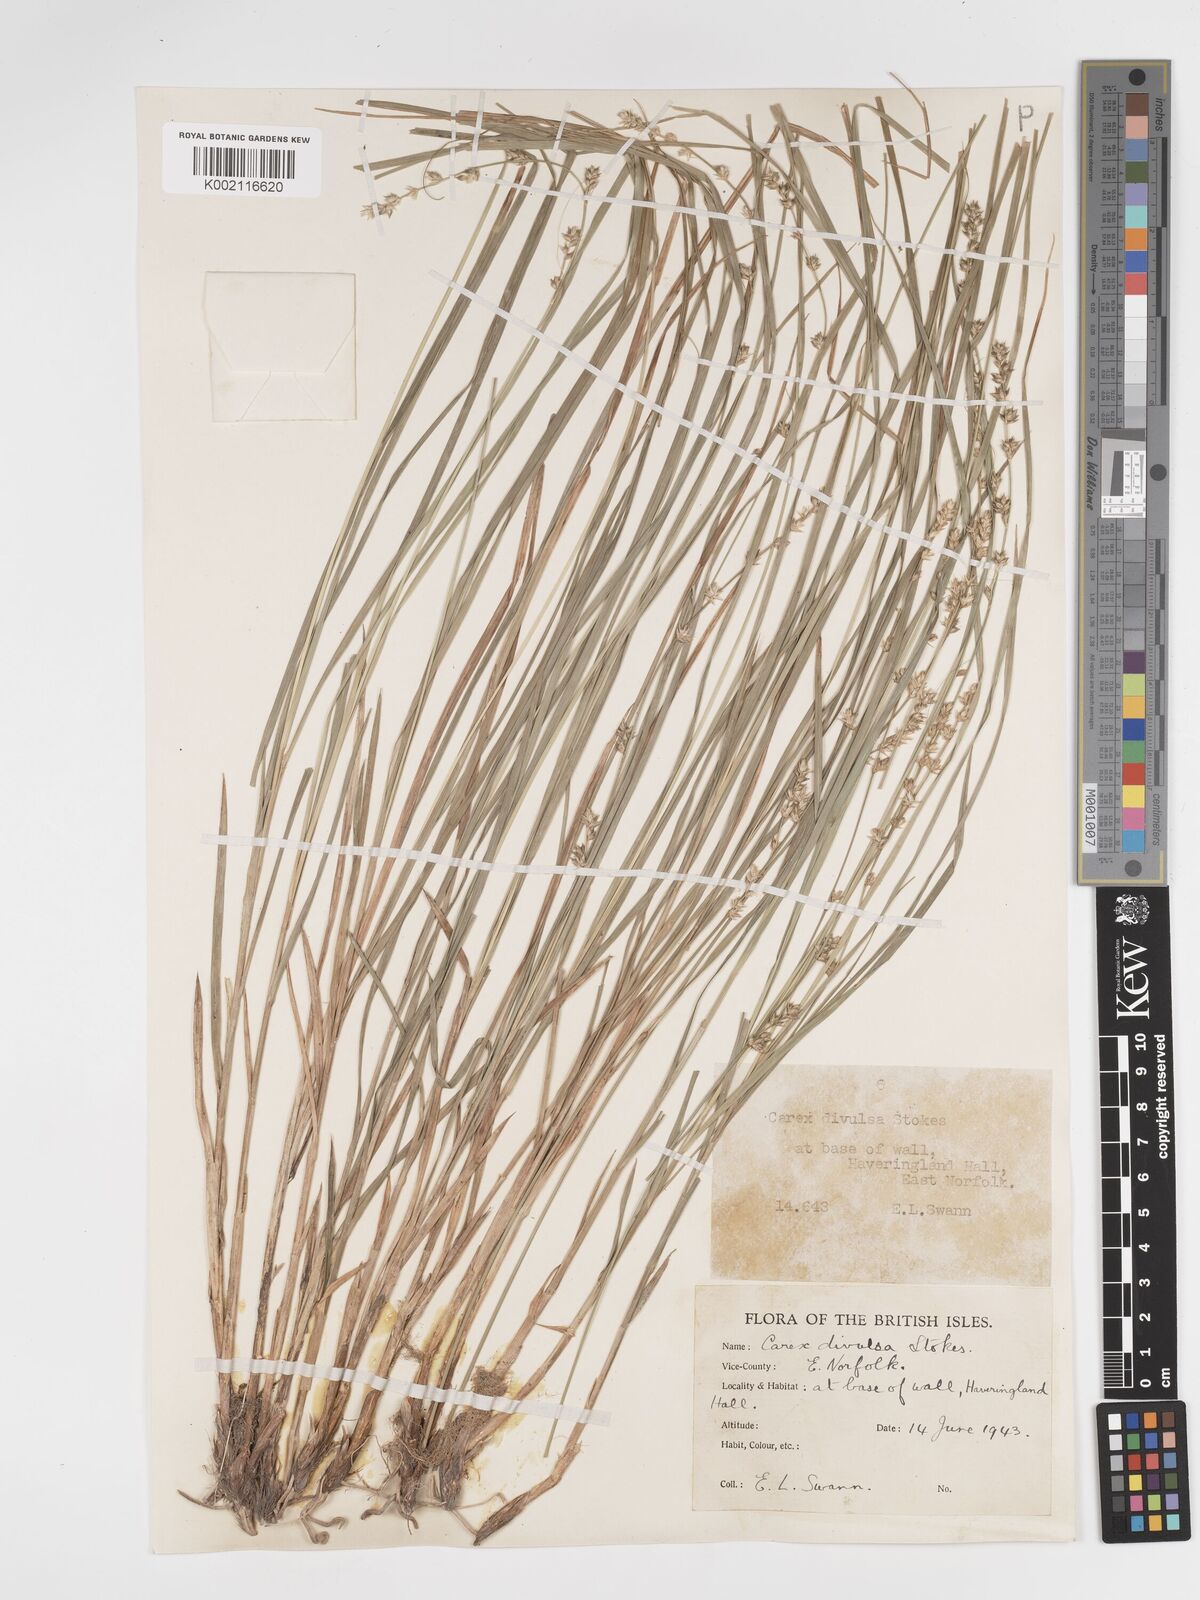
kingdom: Plantae
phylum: Tracheophyta
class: Liliopsida
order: Poales
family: Cyperaceae
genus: Carex
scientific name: Carex divulsa
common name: Grassland sedge
